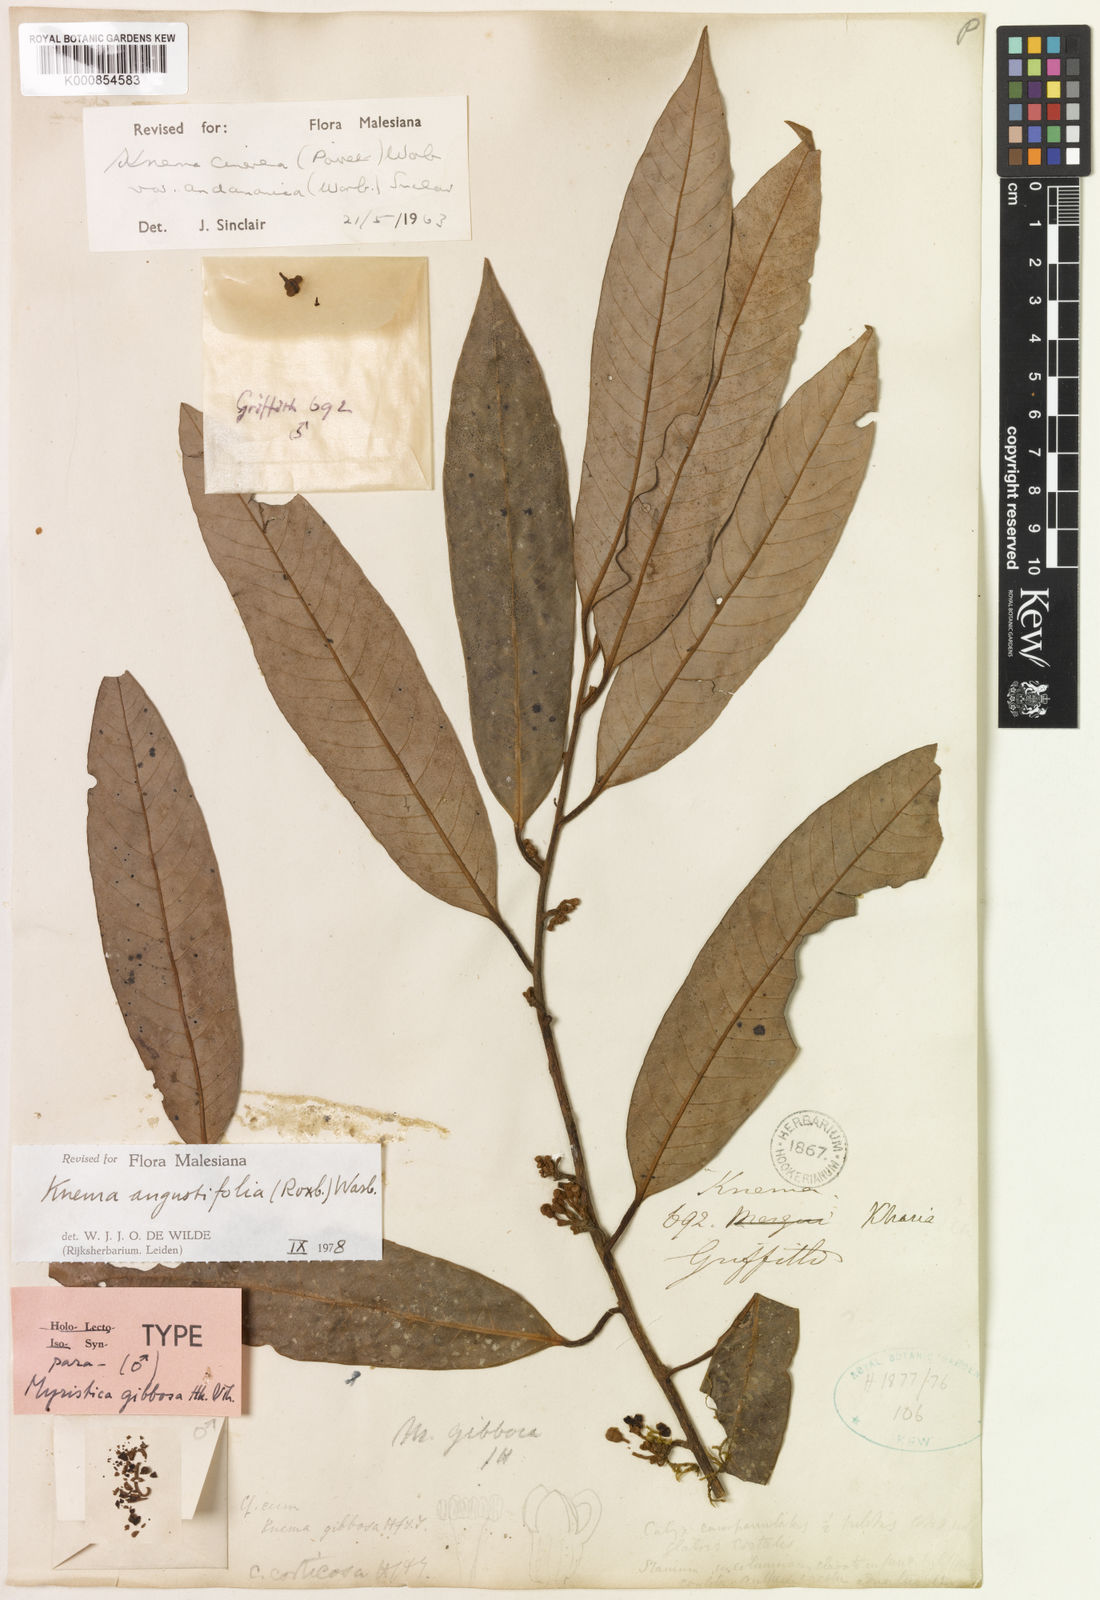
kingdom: Plantae
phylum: Tracheophyta
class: Magnoliopsida
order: Magnoliales
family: Myristicaceae
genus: Knema
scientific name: Knema angustifolia
